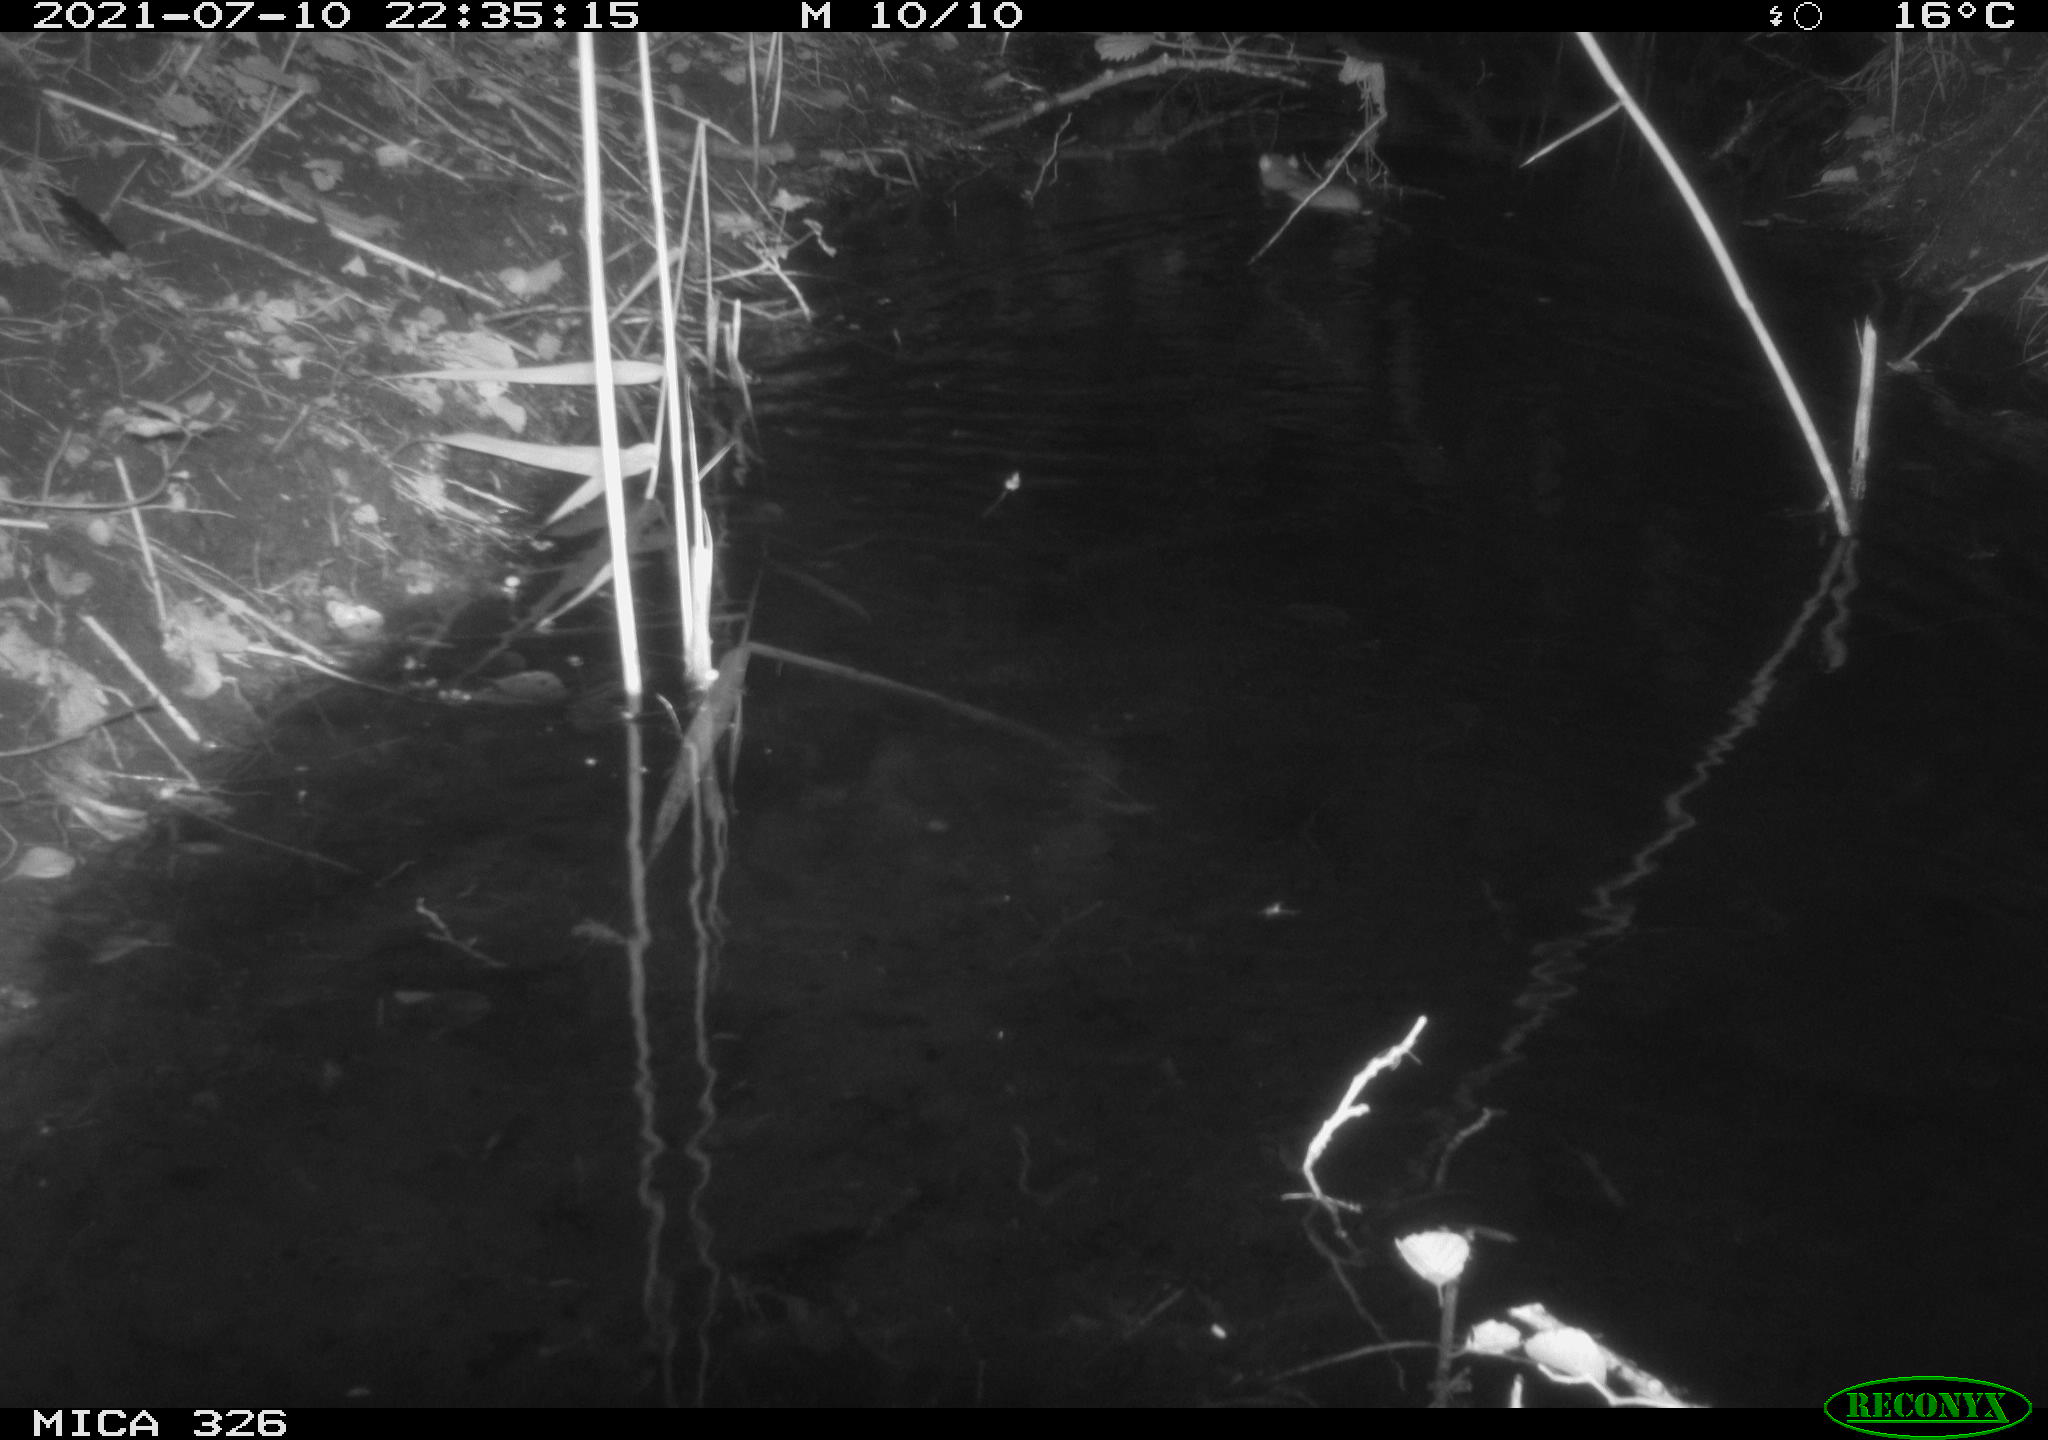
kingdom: Animalia
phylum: Chordata
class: Mammalia
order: Rodentia
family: Muridae
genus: Rattus
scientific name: Rattus norvegicus
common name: Brown rat
